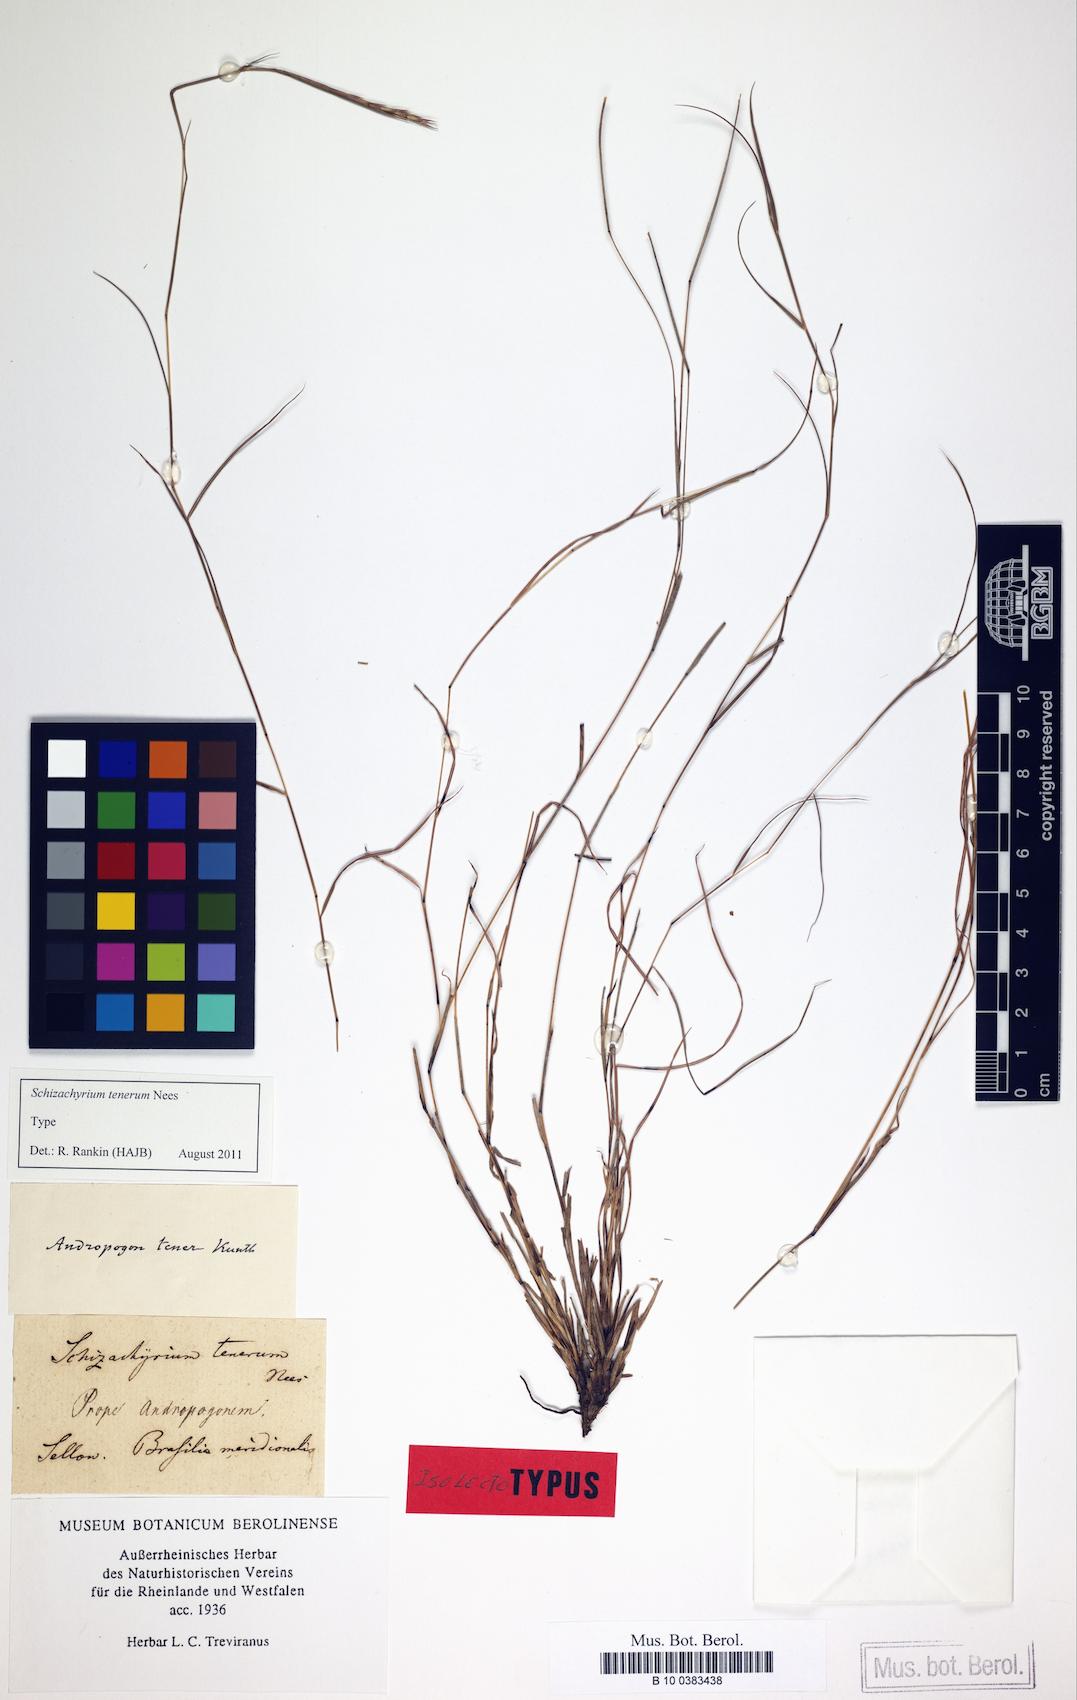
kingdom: Plantae
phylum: Tracheophyta
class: Liliopsida
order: Poales
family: Poaceae
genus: Andropogon
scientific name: Andropogon tener
